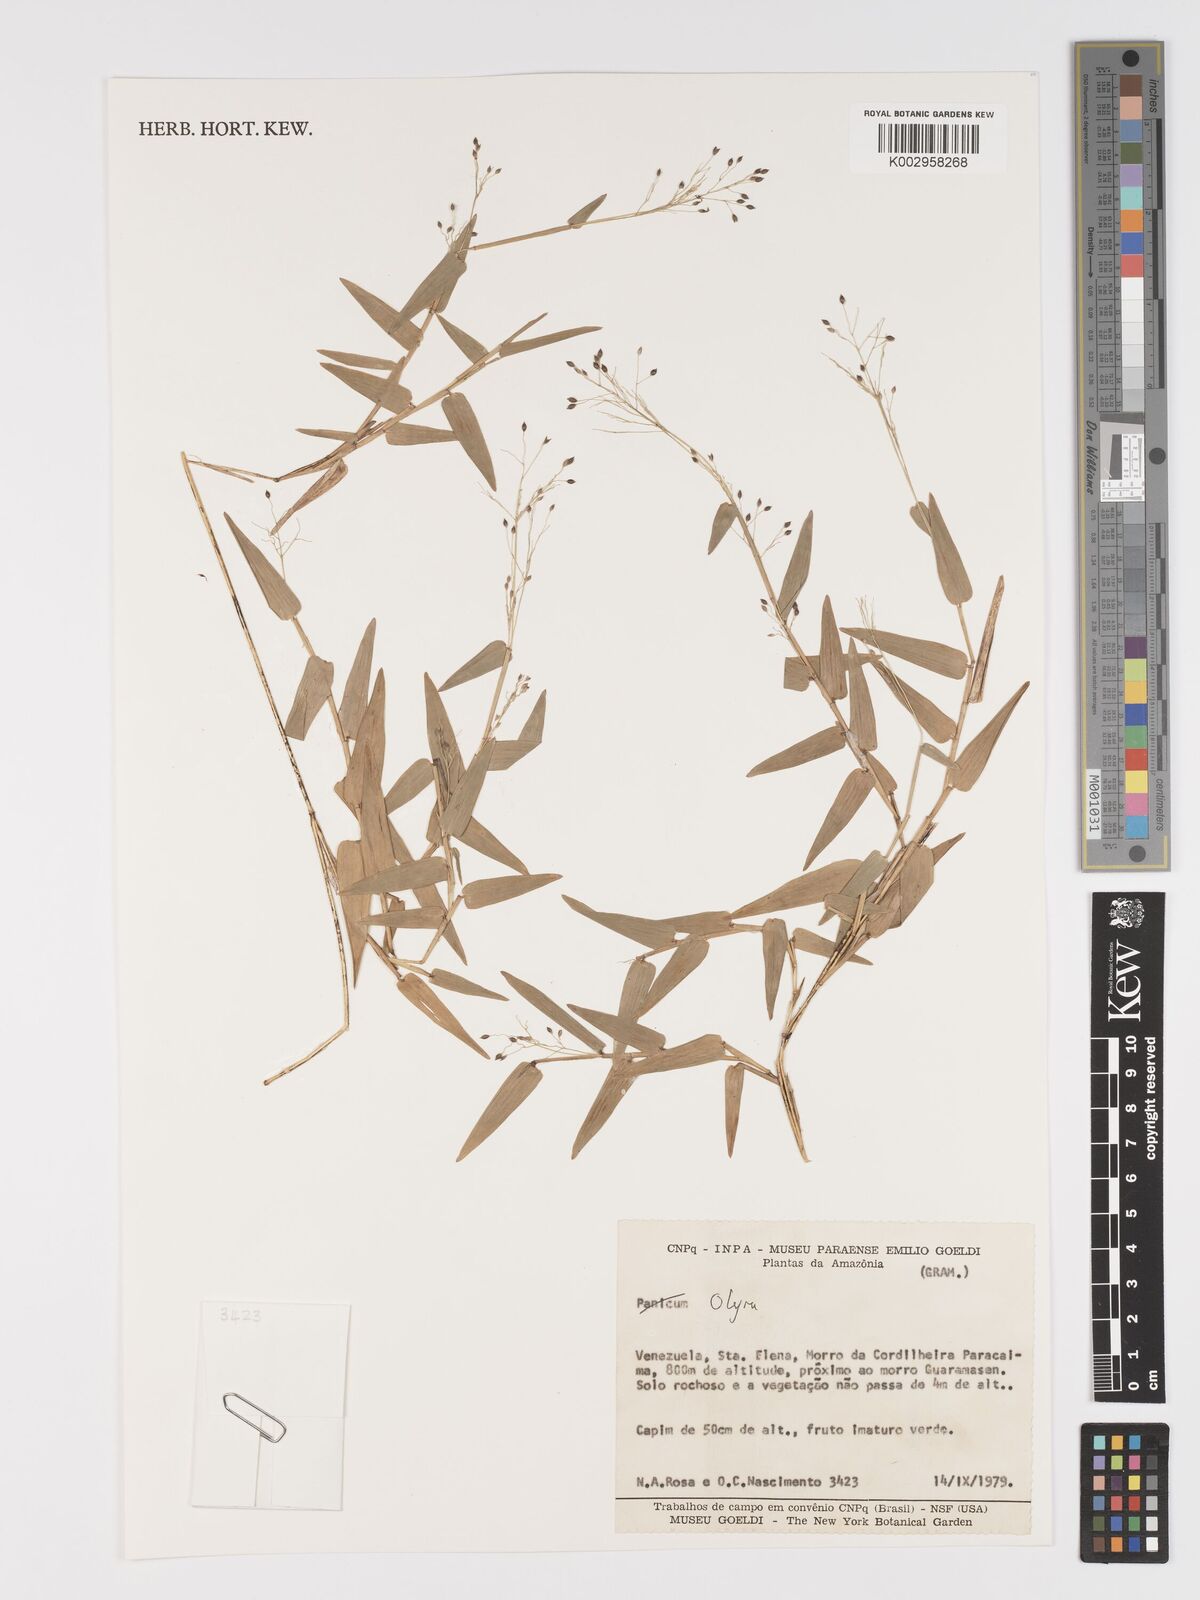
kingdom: Plantae
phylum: Tracheophyta
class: Liliopsida
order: Poales
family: Poaceae
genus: Parodiolyra
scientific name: Parodiolyra lateralis
